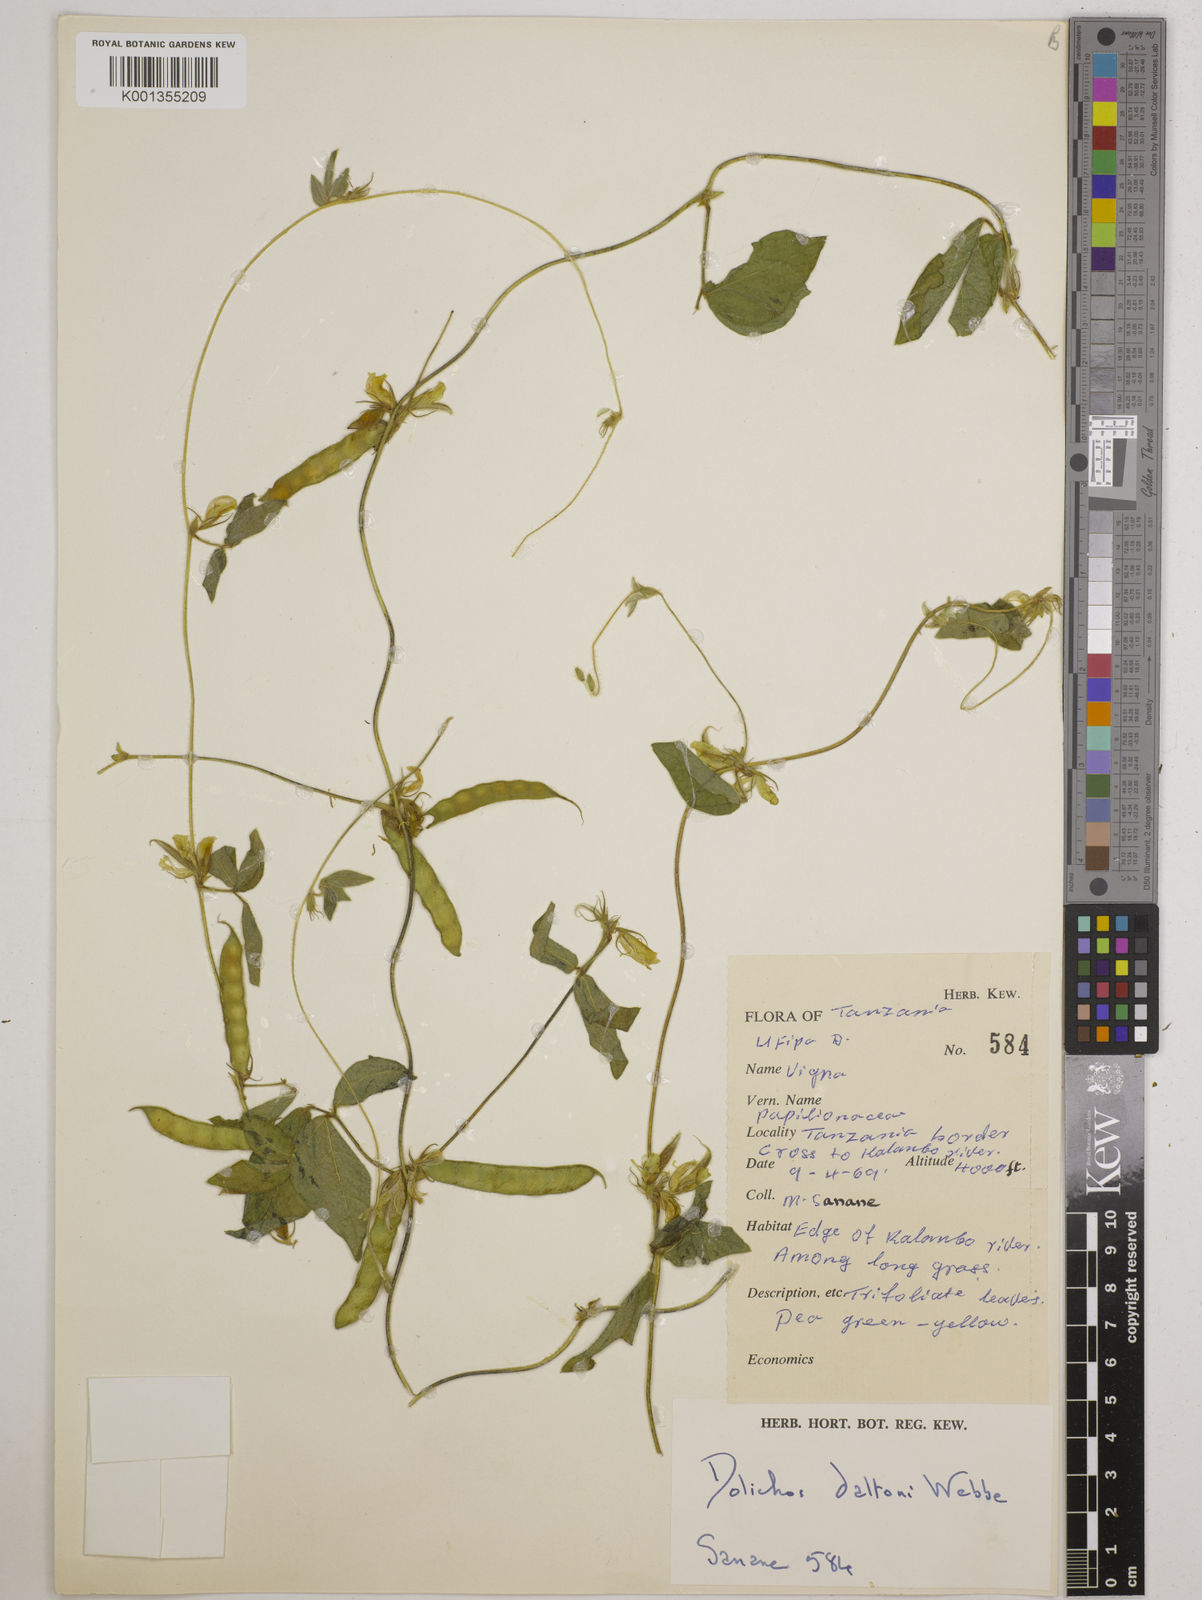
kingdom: Plantae
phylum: Tracheophyta
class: Magnoliopsida
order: Fabales
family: Fabaceae
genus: Macrotyloma
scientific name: Macrotyloma daltonii
